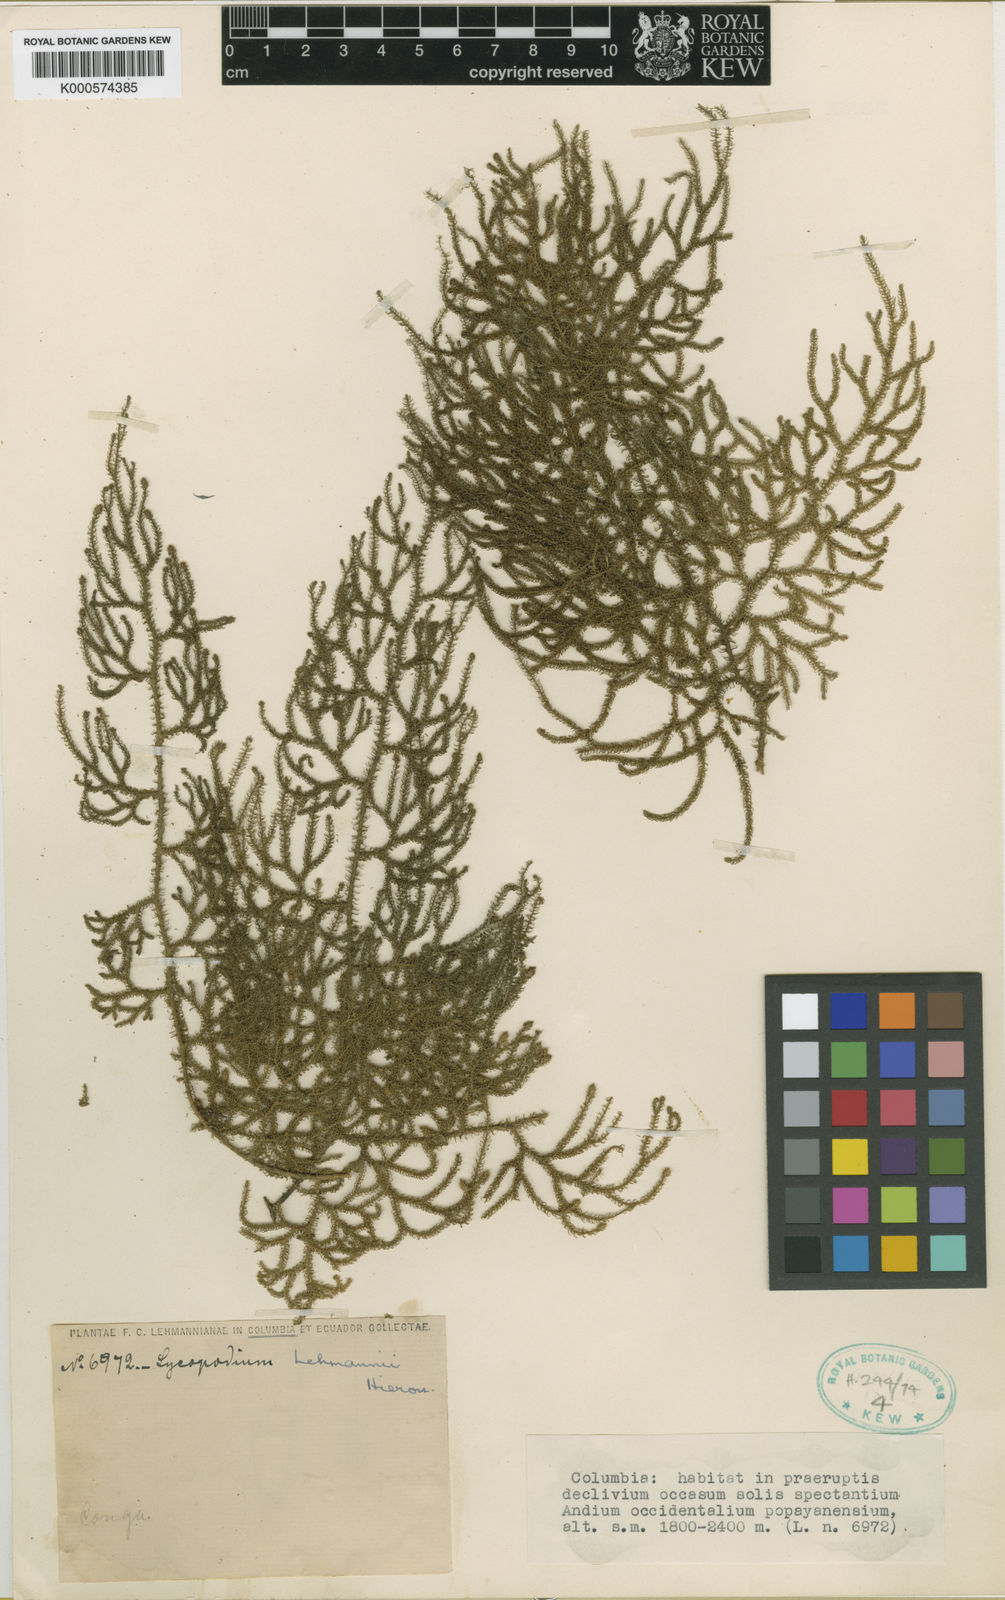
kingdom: Plantae
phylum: Tracheophyta
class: Lycopodiopsida
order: Lycopodiales
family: Lycopodiaceae
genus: Palhinhaea
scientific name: Palhinhaea lehmannii
